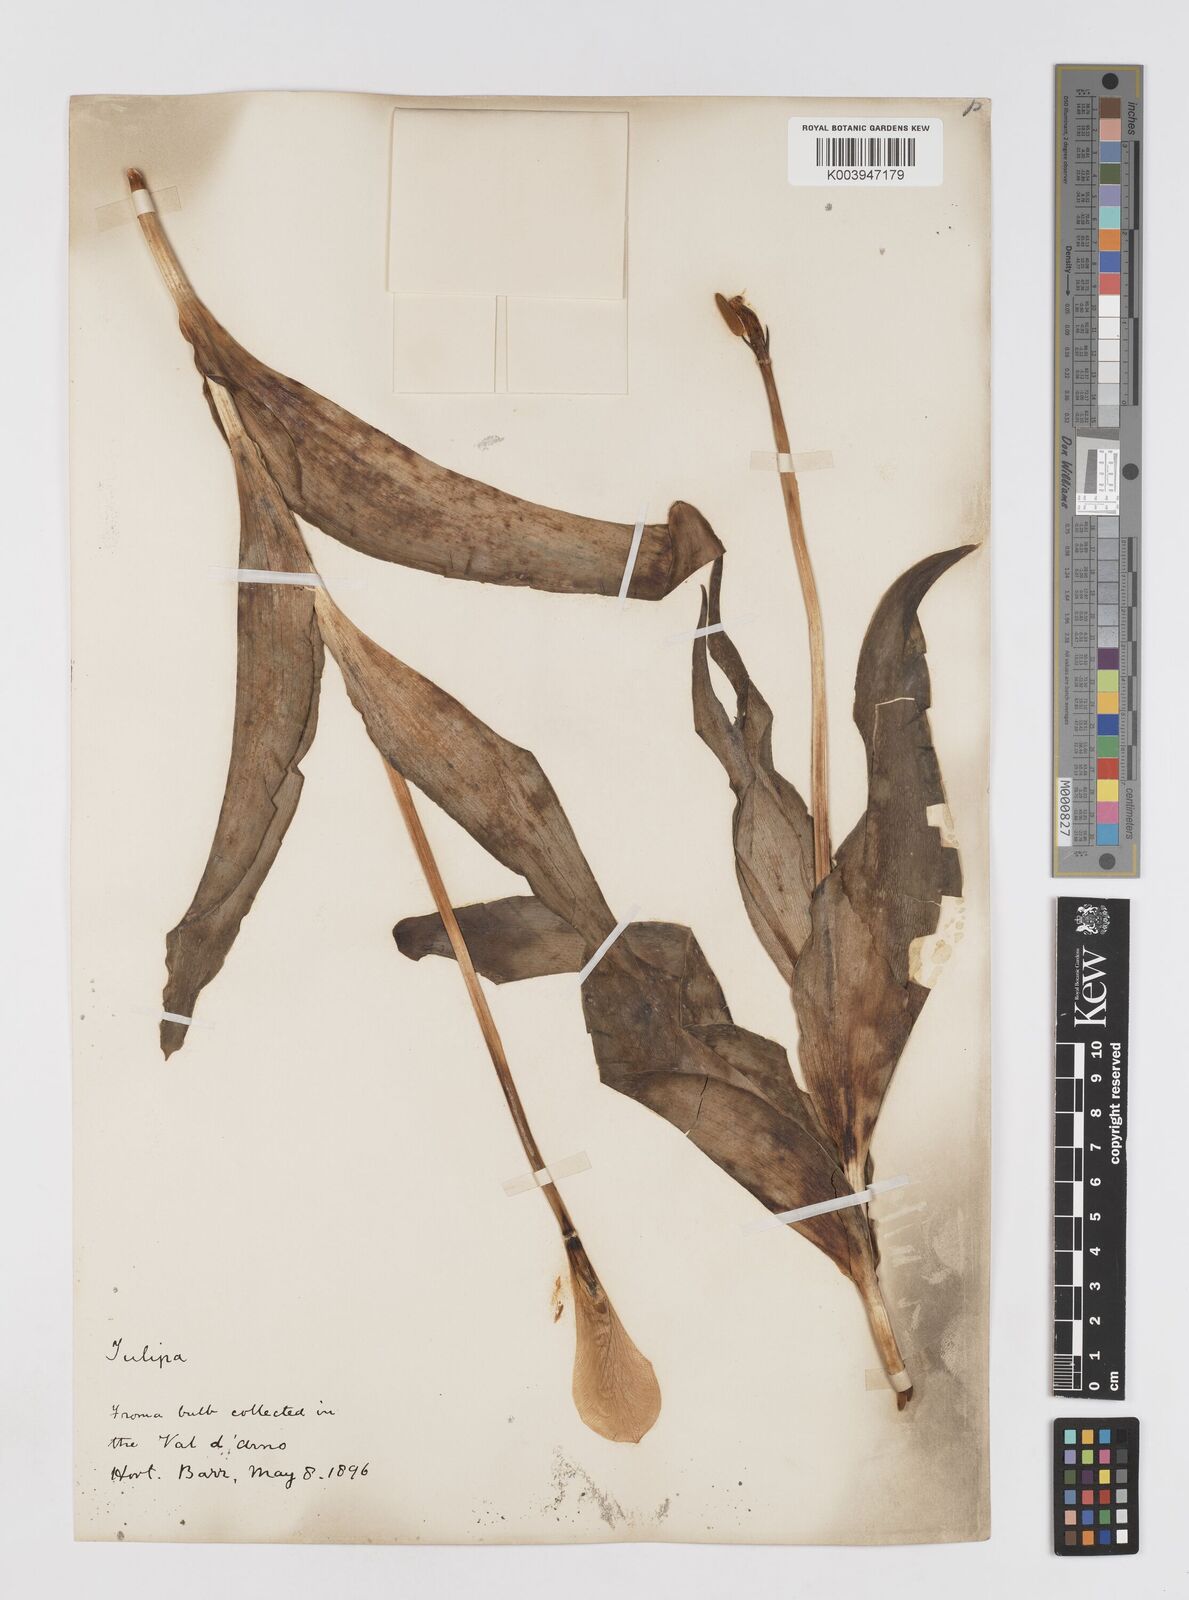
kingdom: Plantae
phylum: Tracheophyta
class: Liliopsida
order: Liliales
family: Liliaceae
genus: Tulipa
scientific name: Tulipa gesneriana
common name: Garden tulip
